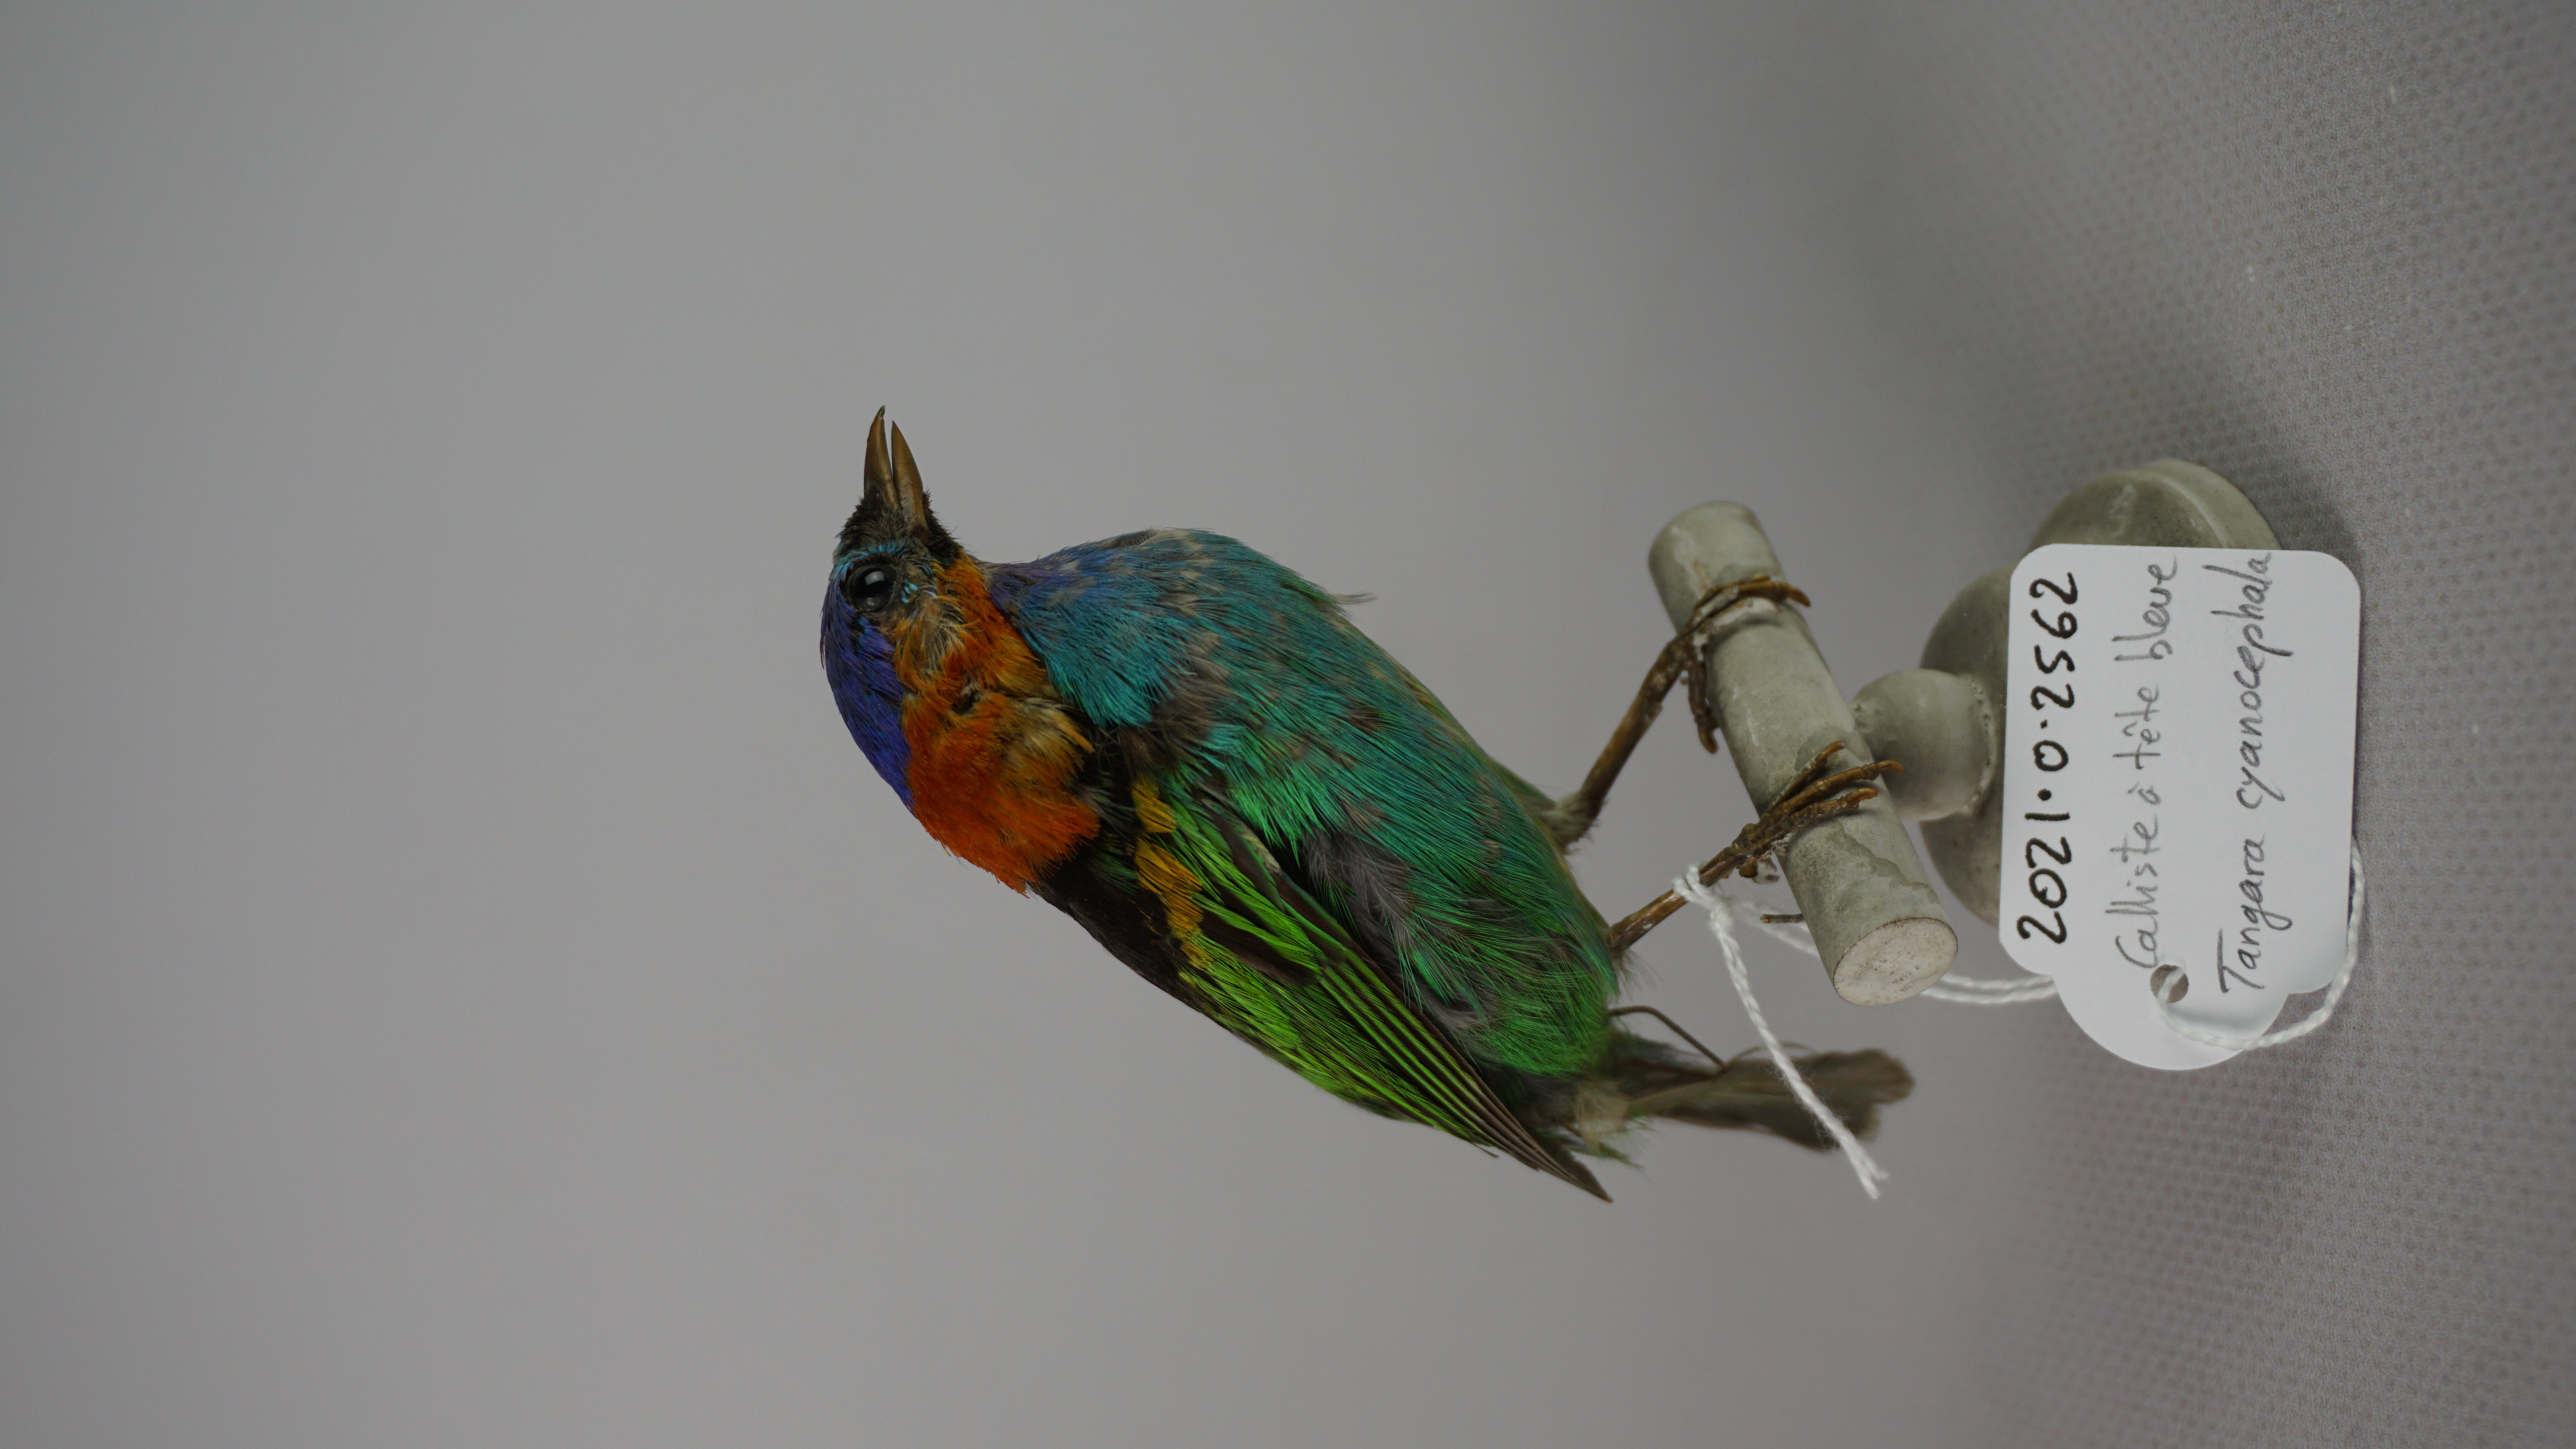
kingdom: Animalia
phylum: Chordata
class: Aves
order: Passeriformes
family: Thraupidae
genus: Tangara
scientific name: Tangara cyanocephala
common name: Red-necked tanager
